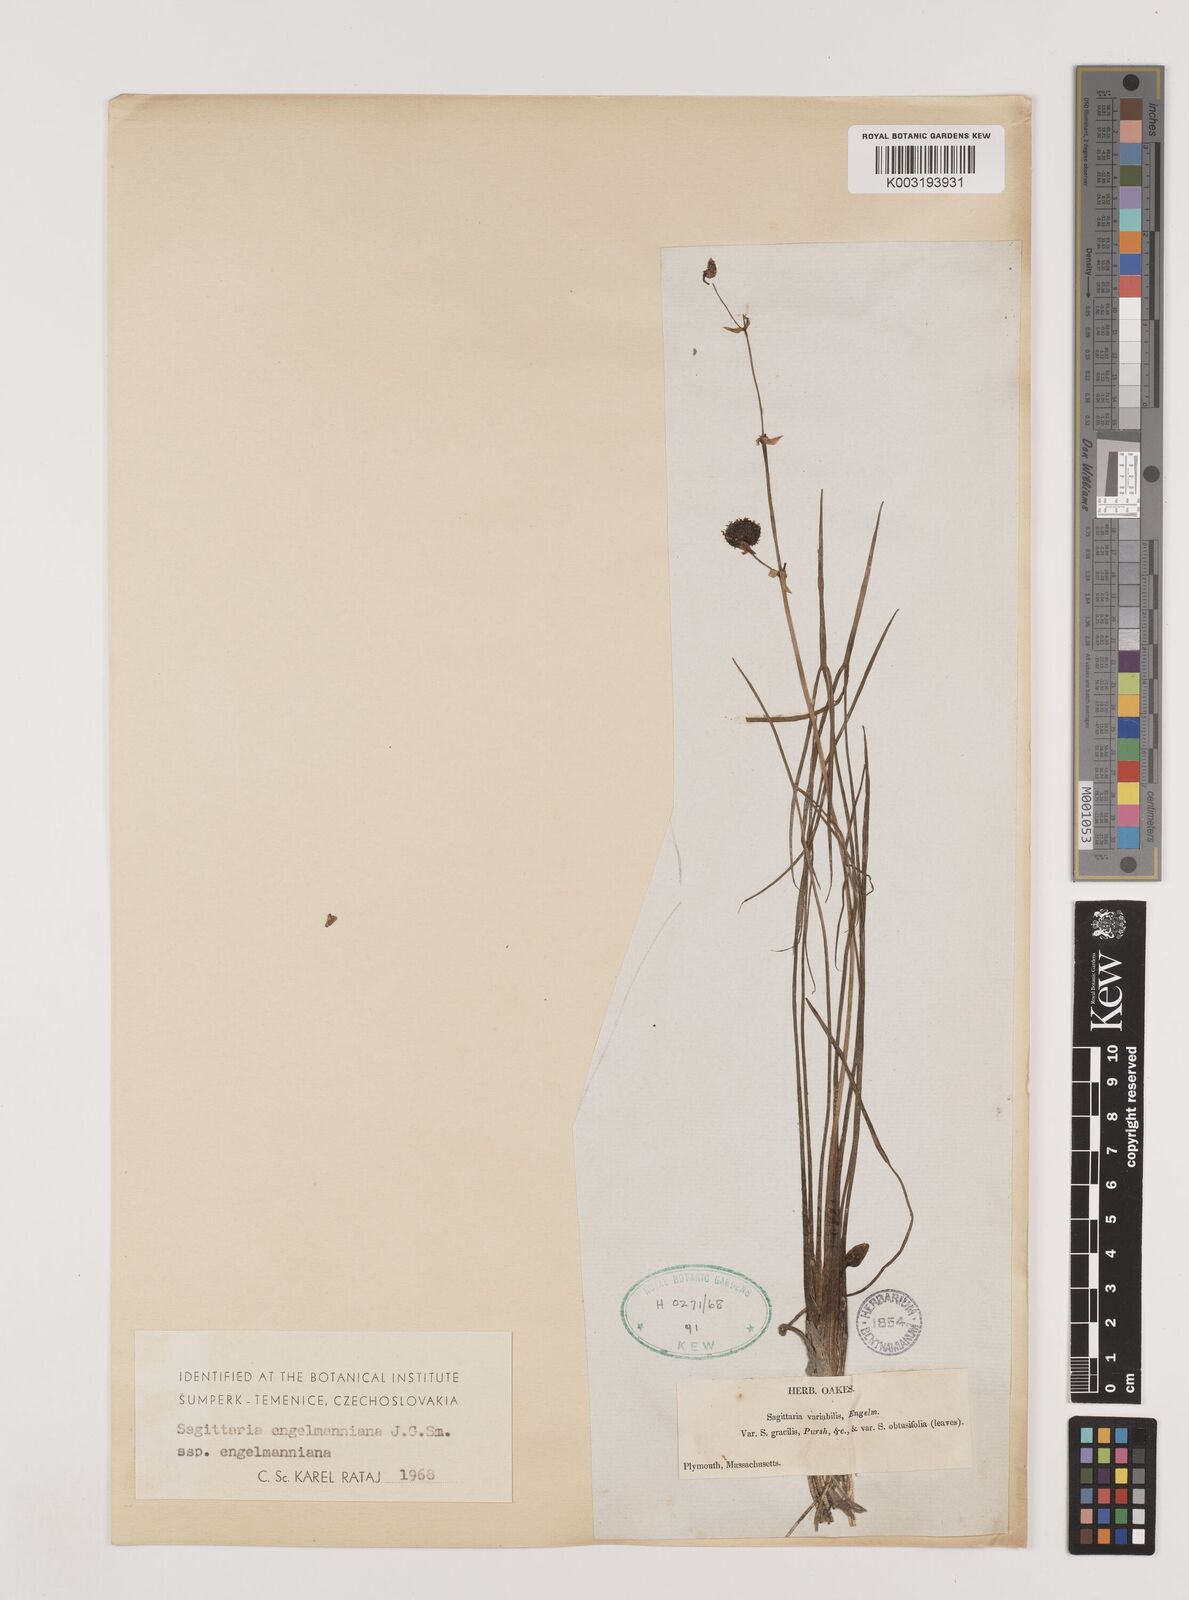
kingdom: Plantae
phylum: Tracheophyta
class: Liliopsida
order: Alismatales
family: Alismataceae
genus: Sagittaria
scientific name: Sagittaria engelmanniana
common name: Acid-water arrowhead
